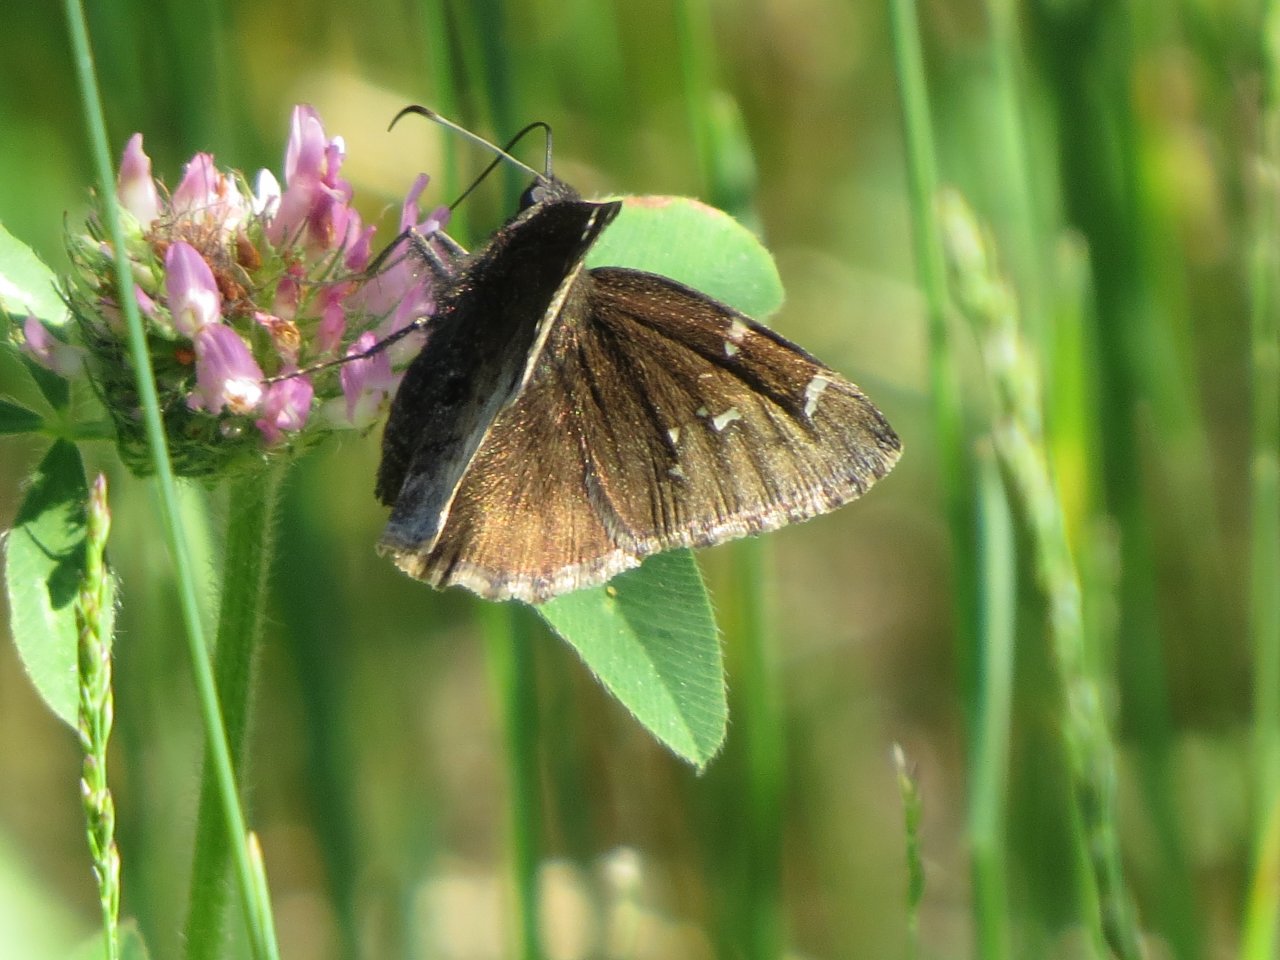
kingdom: Animalia
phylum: Arthropoda
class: Insecta
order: Lepidoptera
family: Hesperiidae
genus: Autochton
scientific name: Autochton
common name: Northern Cloudywing
